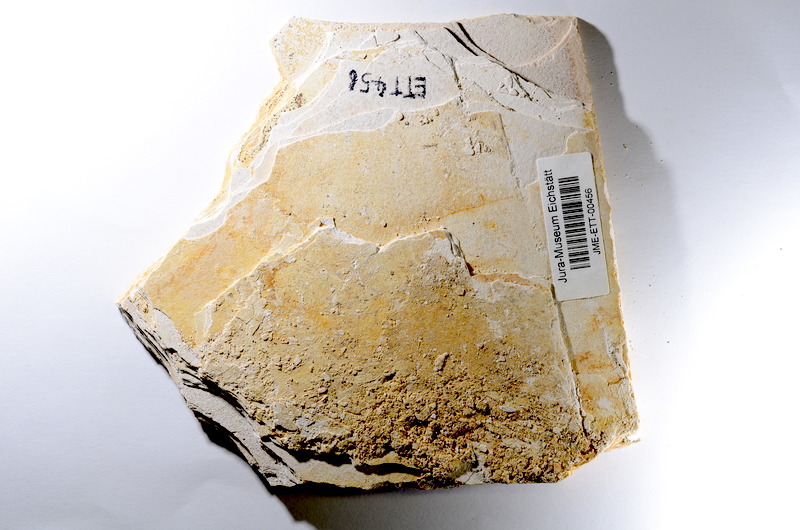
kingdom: Animalia
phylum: Chordata
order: Salmoniformes
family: Orthogonikleithridae
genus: Orthogonikleithrus
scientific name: Orthogonikleithrus hoelli
